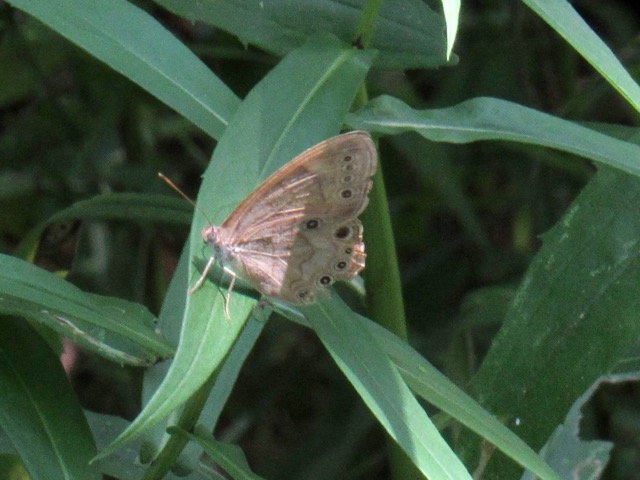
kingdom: Animalia
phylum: Arthropoda
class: Insecta
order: Lepidoptera
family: Nymphalidae
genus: Lethe
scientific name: Lethe eurydice
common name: Appalachian Eyed Brown
